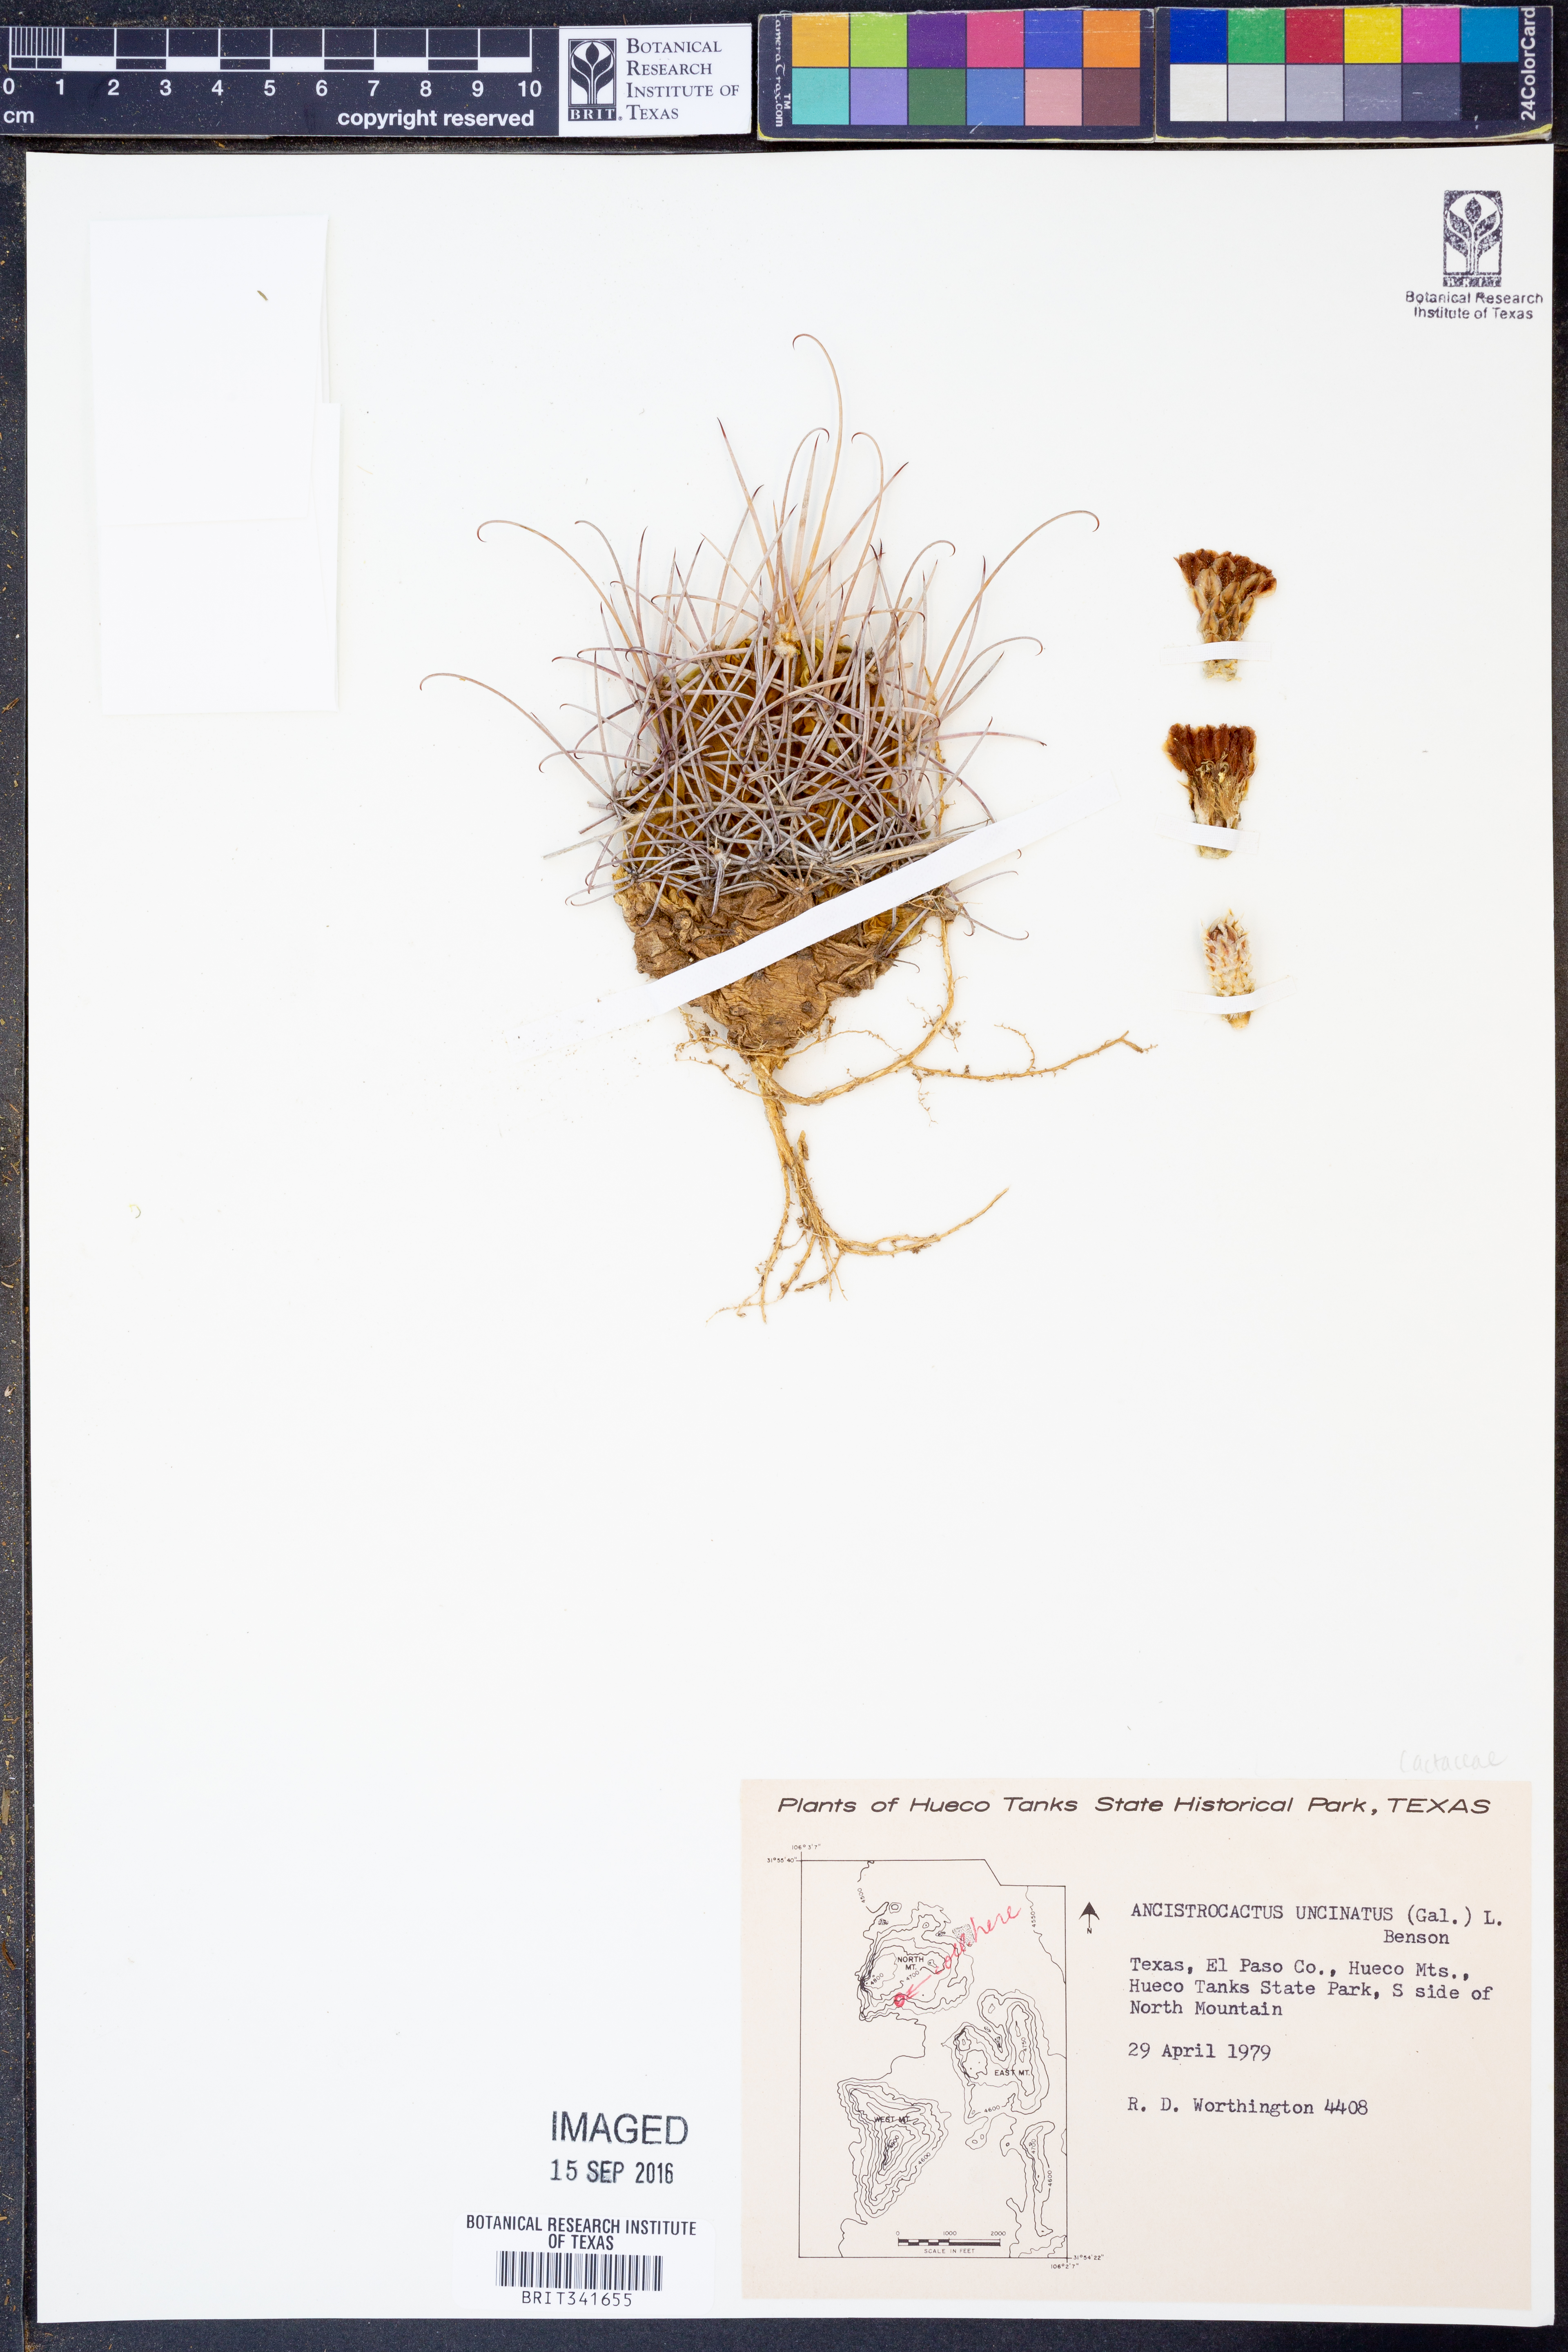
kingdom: Plantae
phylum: Tracheophyta
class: Magnoliopsida
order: Caryophyllales
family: Cactaceae
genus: Ferocactus
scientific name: Ferocactus uncinatus
